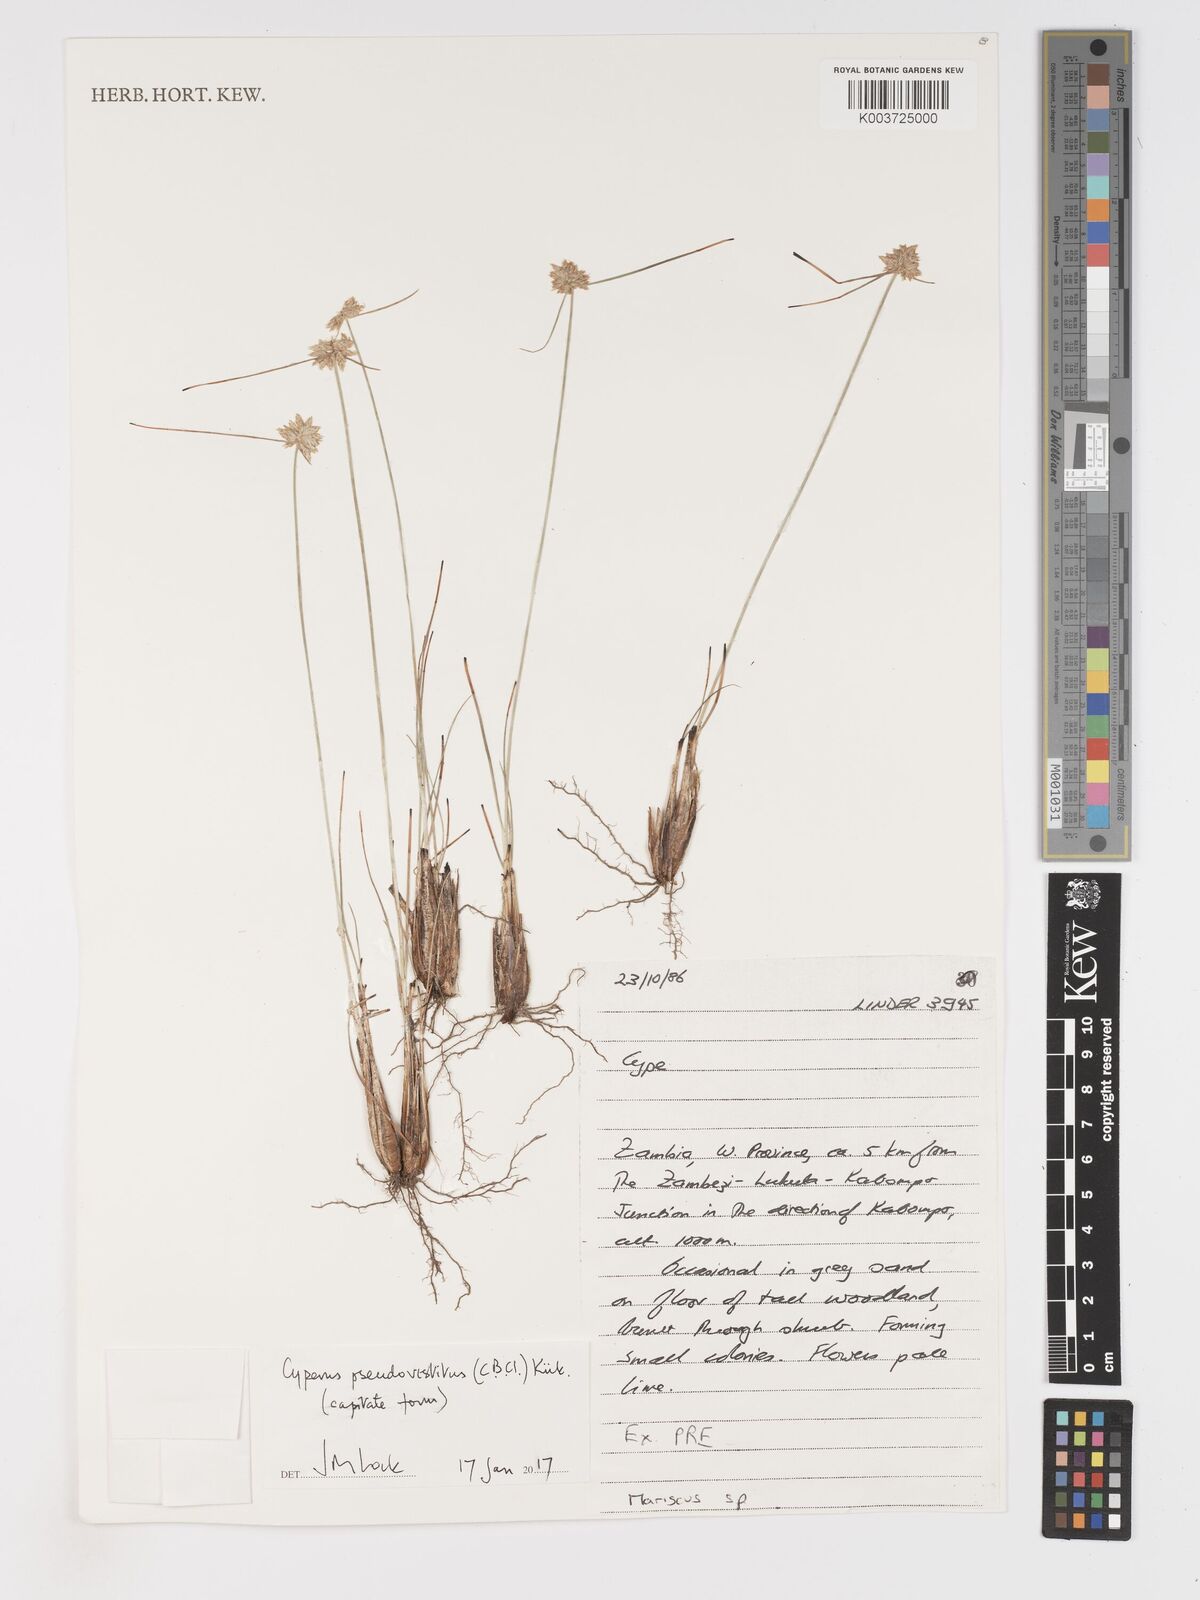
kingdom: Plantae
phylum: Tracheophyta
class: Liliopsida
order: Poales
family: Cyperaceae
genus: Cyperus
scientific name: Cyperus pseudovestitus
